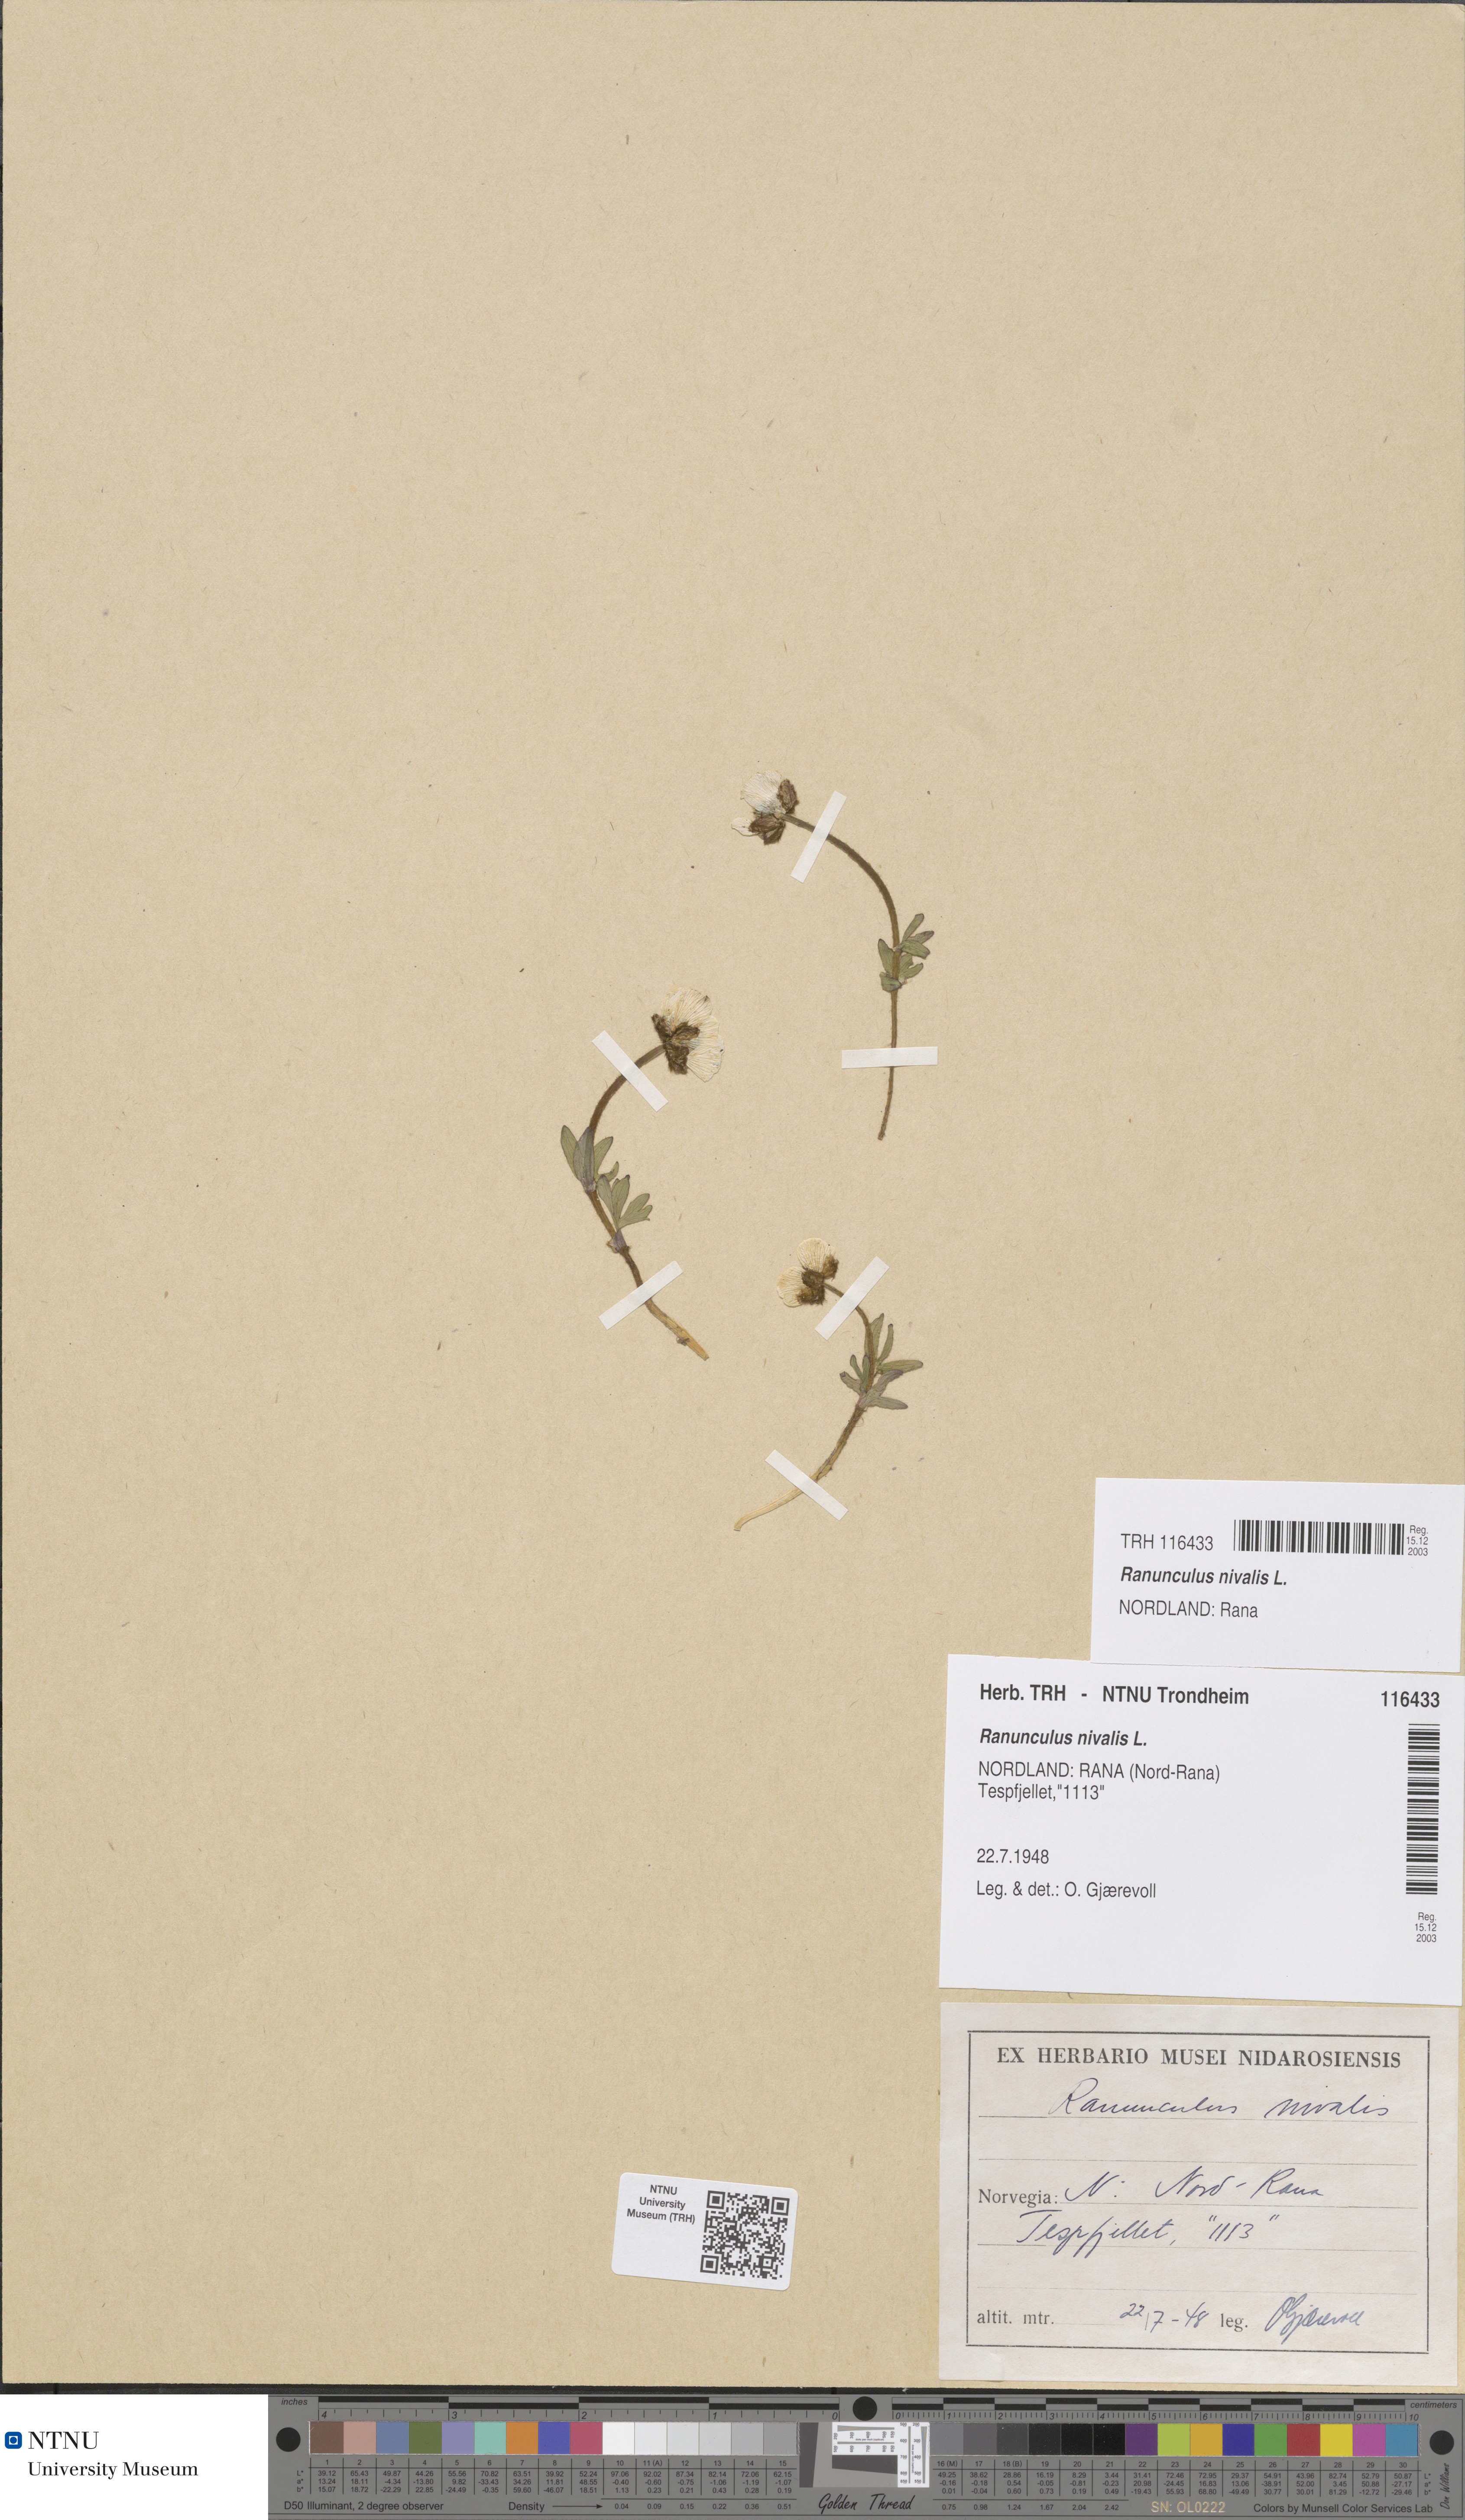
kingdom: Plantae
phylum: Tracheophyta
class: Magnoliopsida
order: Ranunculales
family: Ranunculaceae
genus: Ranunculus
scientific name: Ranunculus nivalis
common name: Snow buttercup
